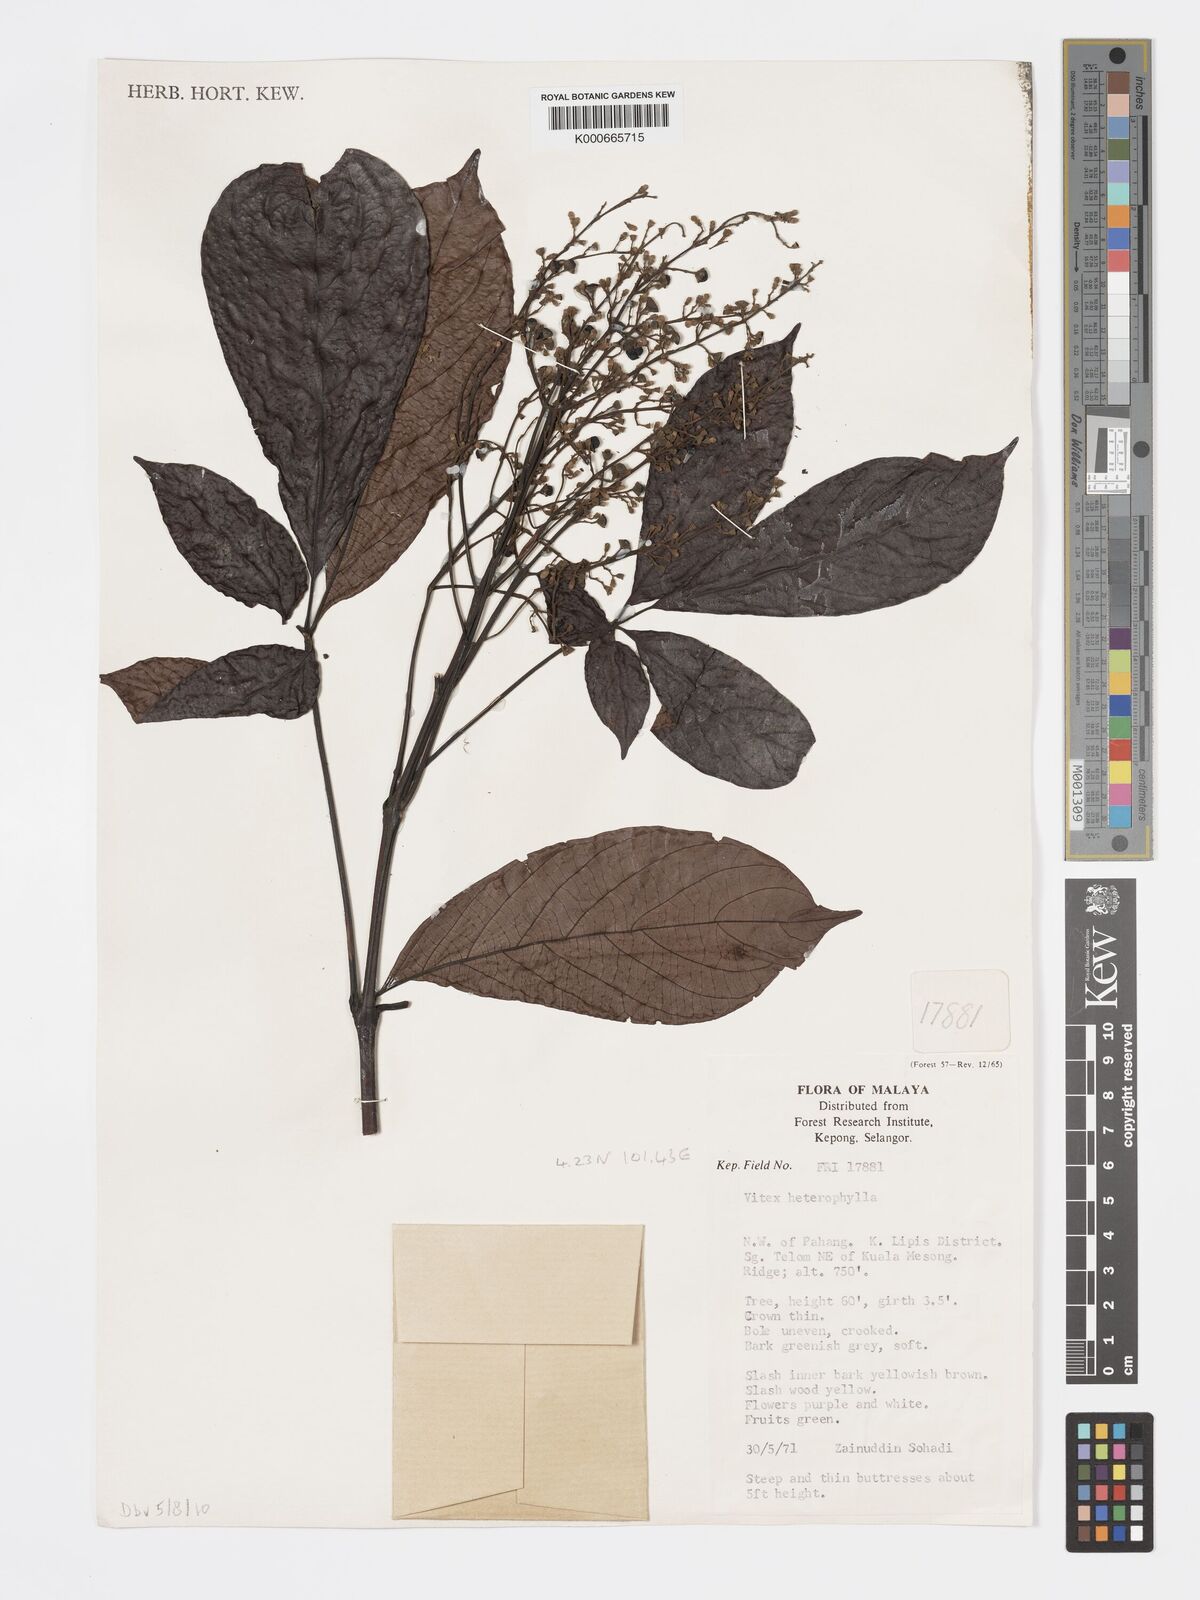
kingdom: Plantae
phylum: Tracheophyta
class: Magnoliopsida
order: Lamiales
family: Lamiaceae
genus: Vitex
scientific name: Vitex quinata
